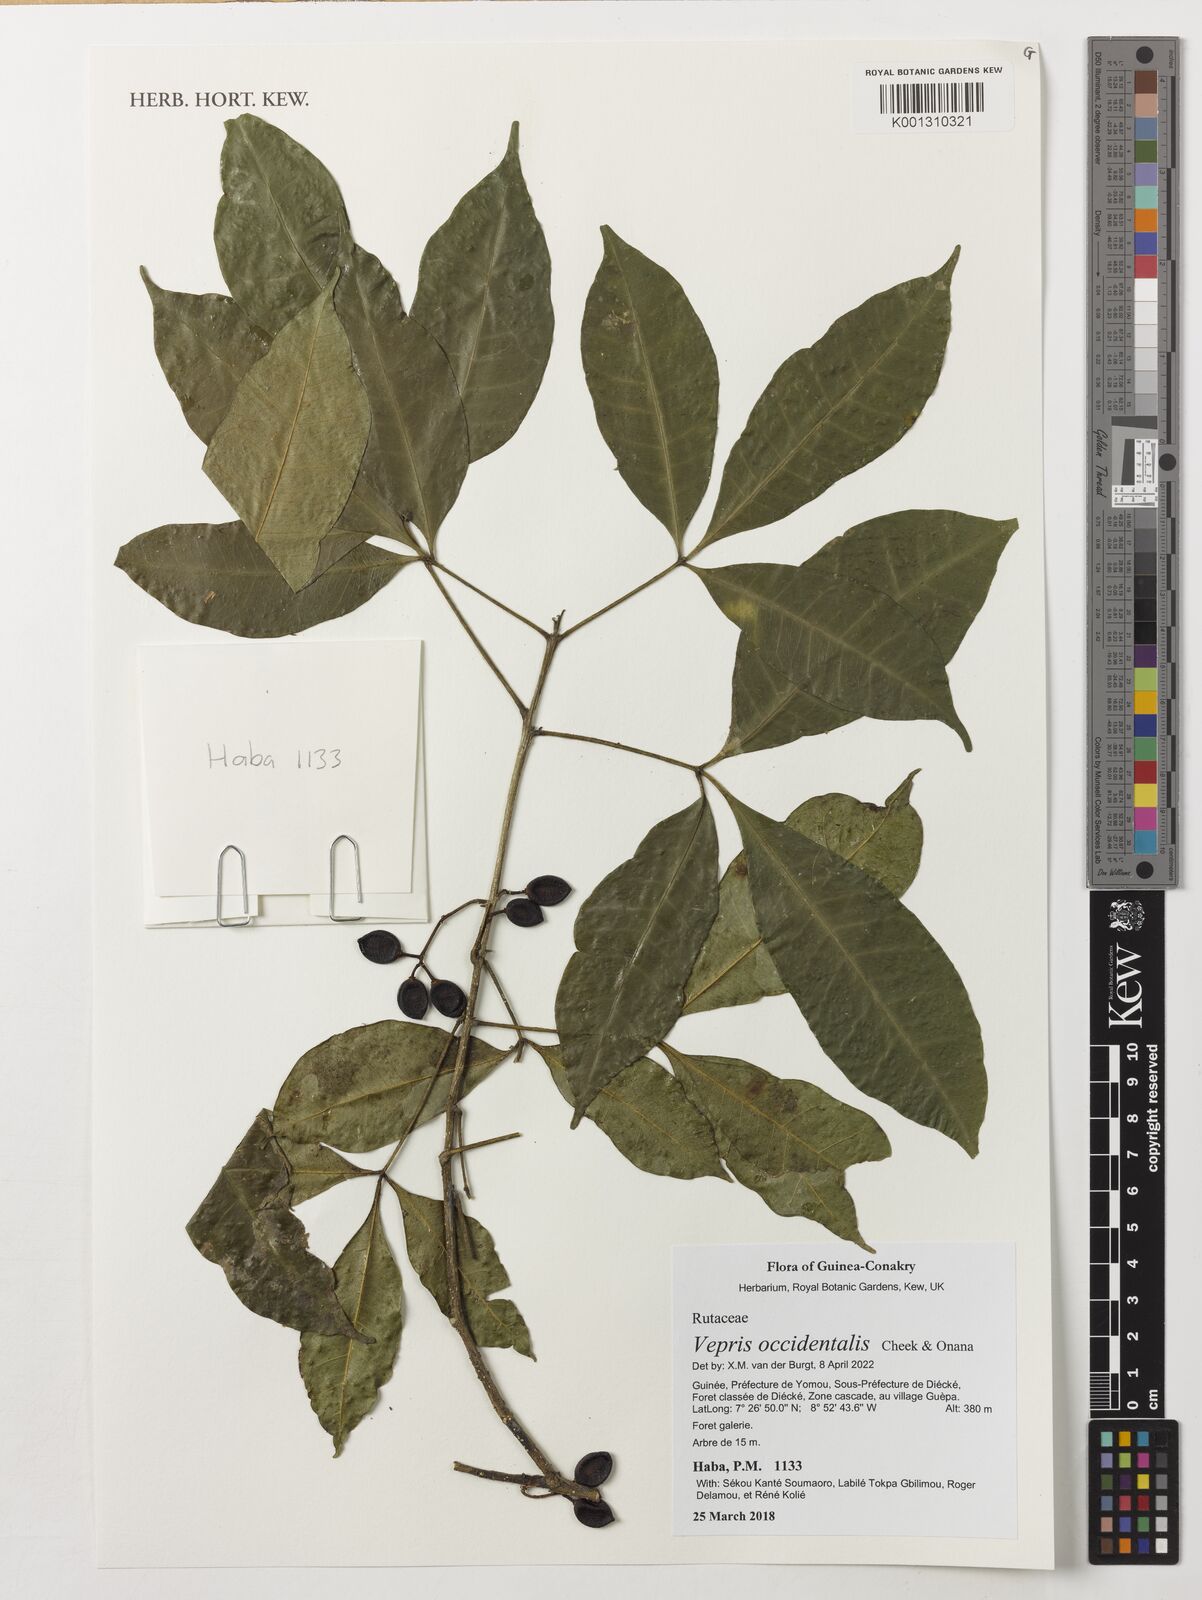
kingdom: Plantae
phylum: Tracheophyta
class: Magnoliopsida
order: Sapindales
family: Rutaceae
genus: Vepris
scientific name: Vepris occidentalis
